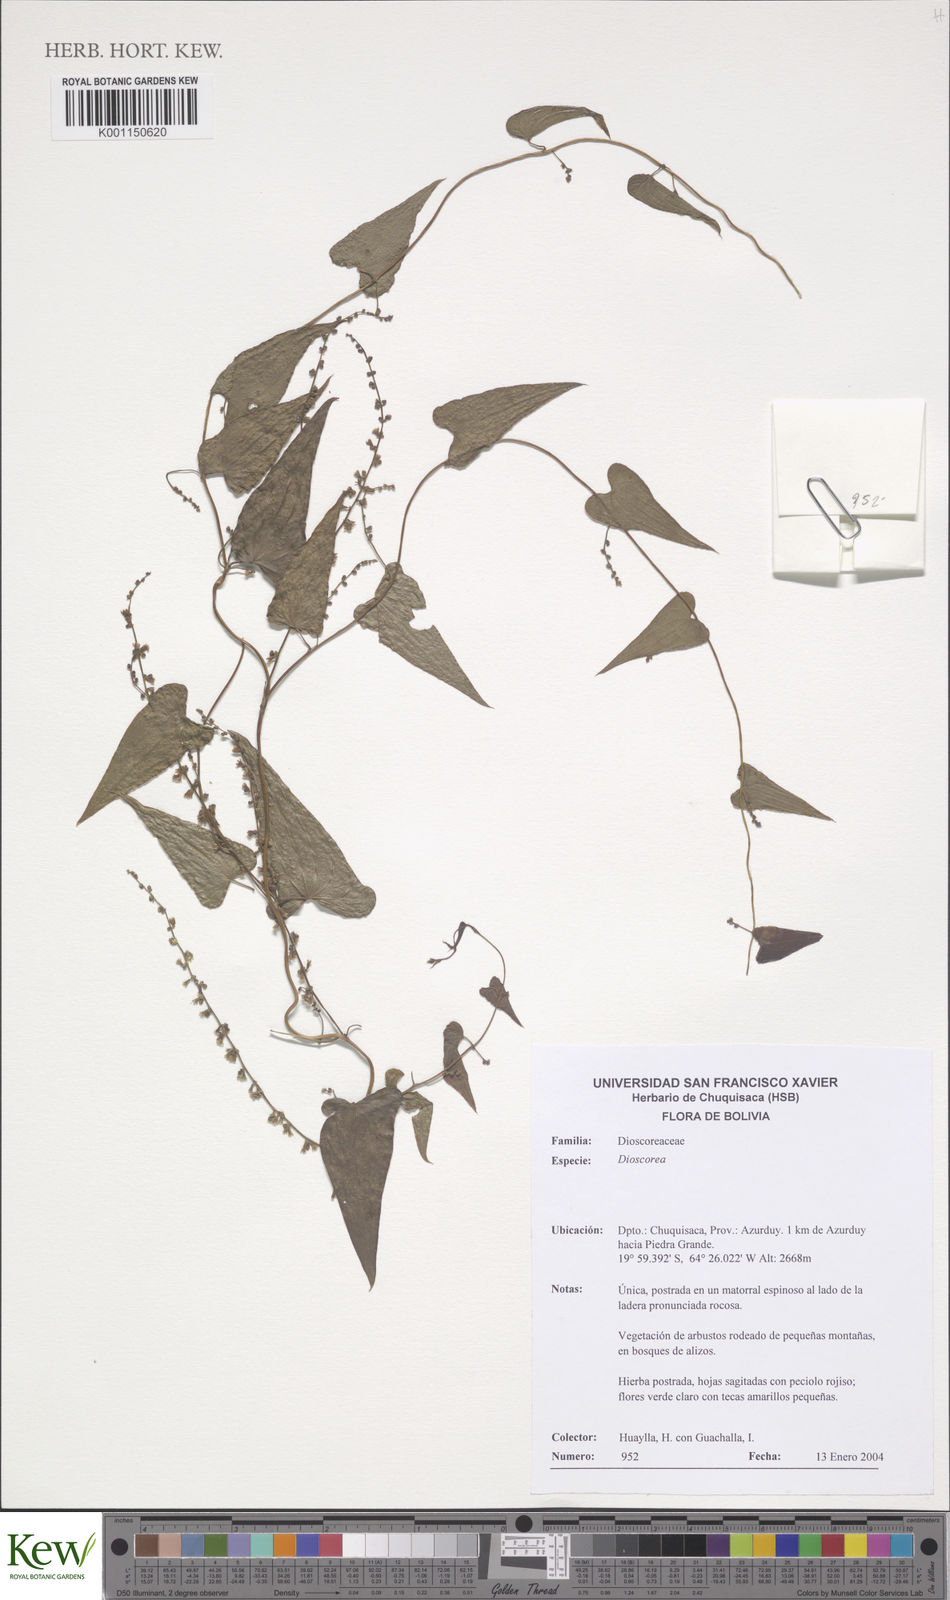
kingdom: Plantae
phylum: Tracheophyta
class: Liliopsida
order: Dioscoreales
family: Dioscoreaceae
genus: Dioscorea
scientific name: Dioscorea
